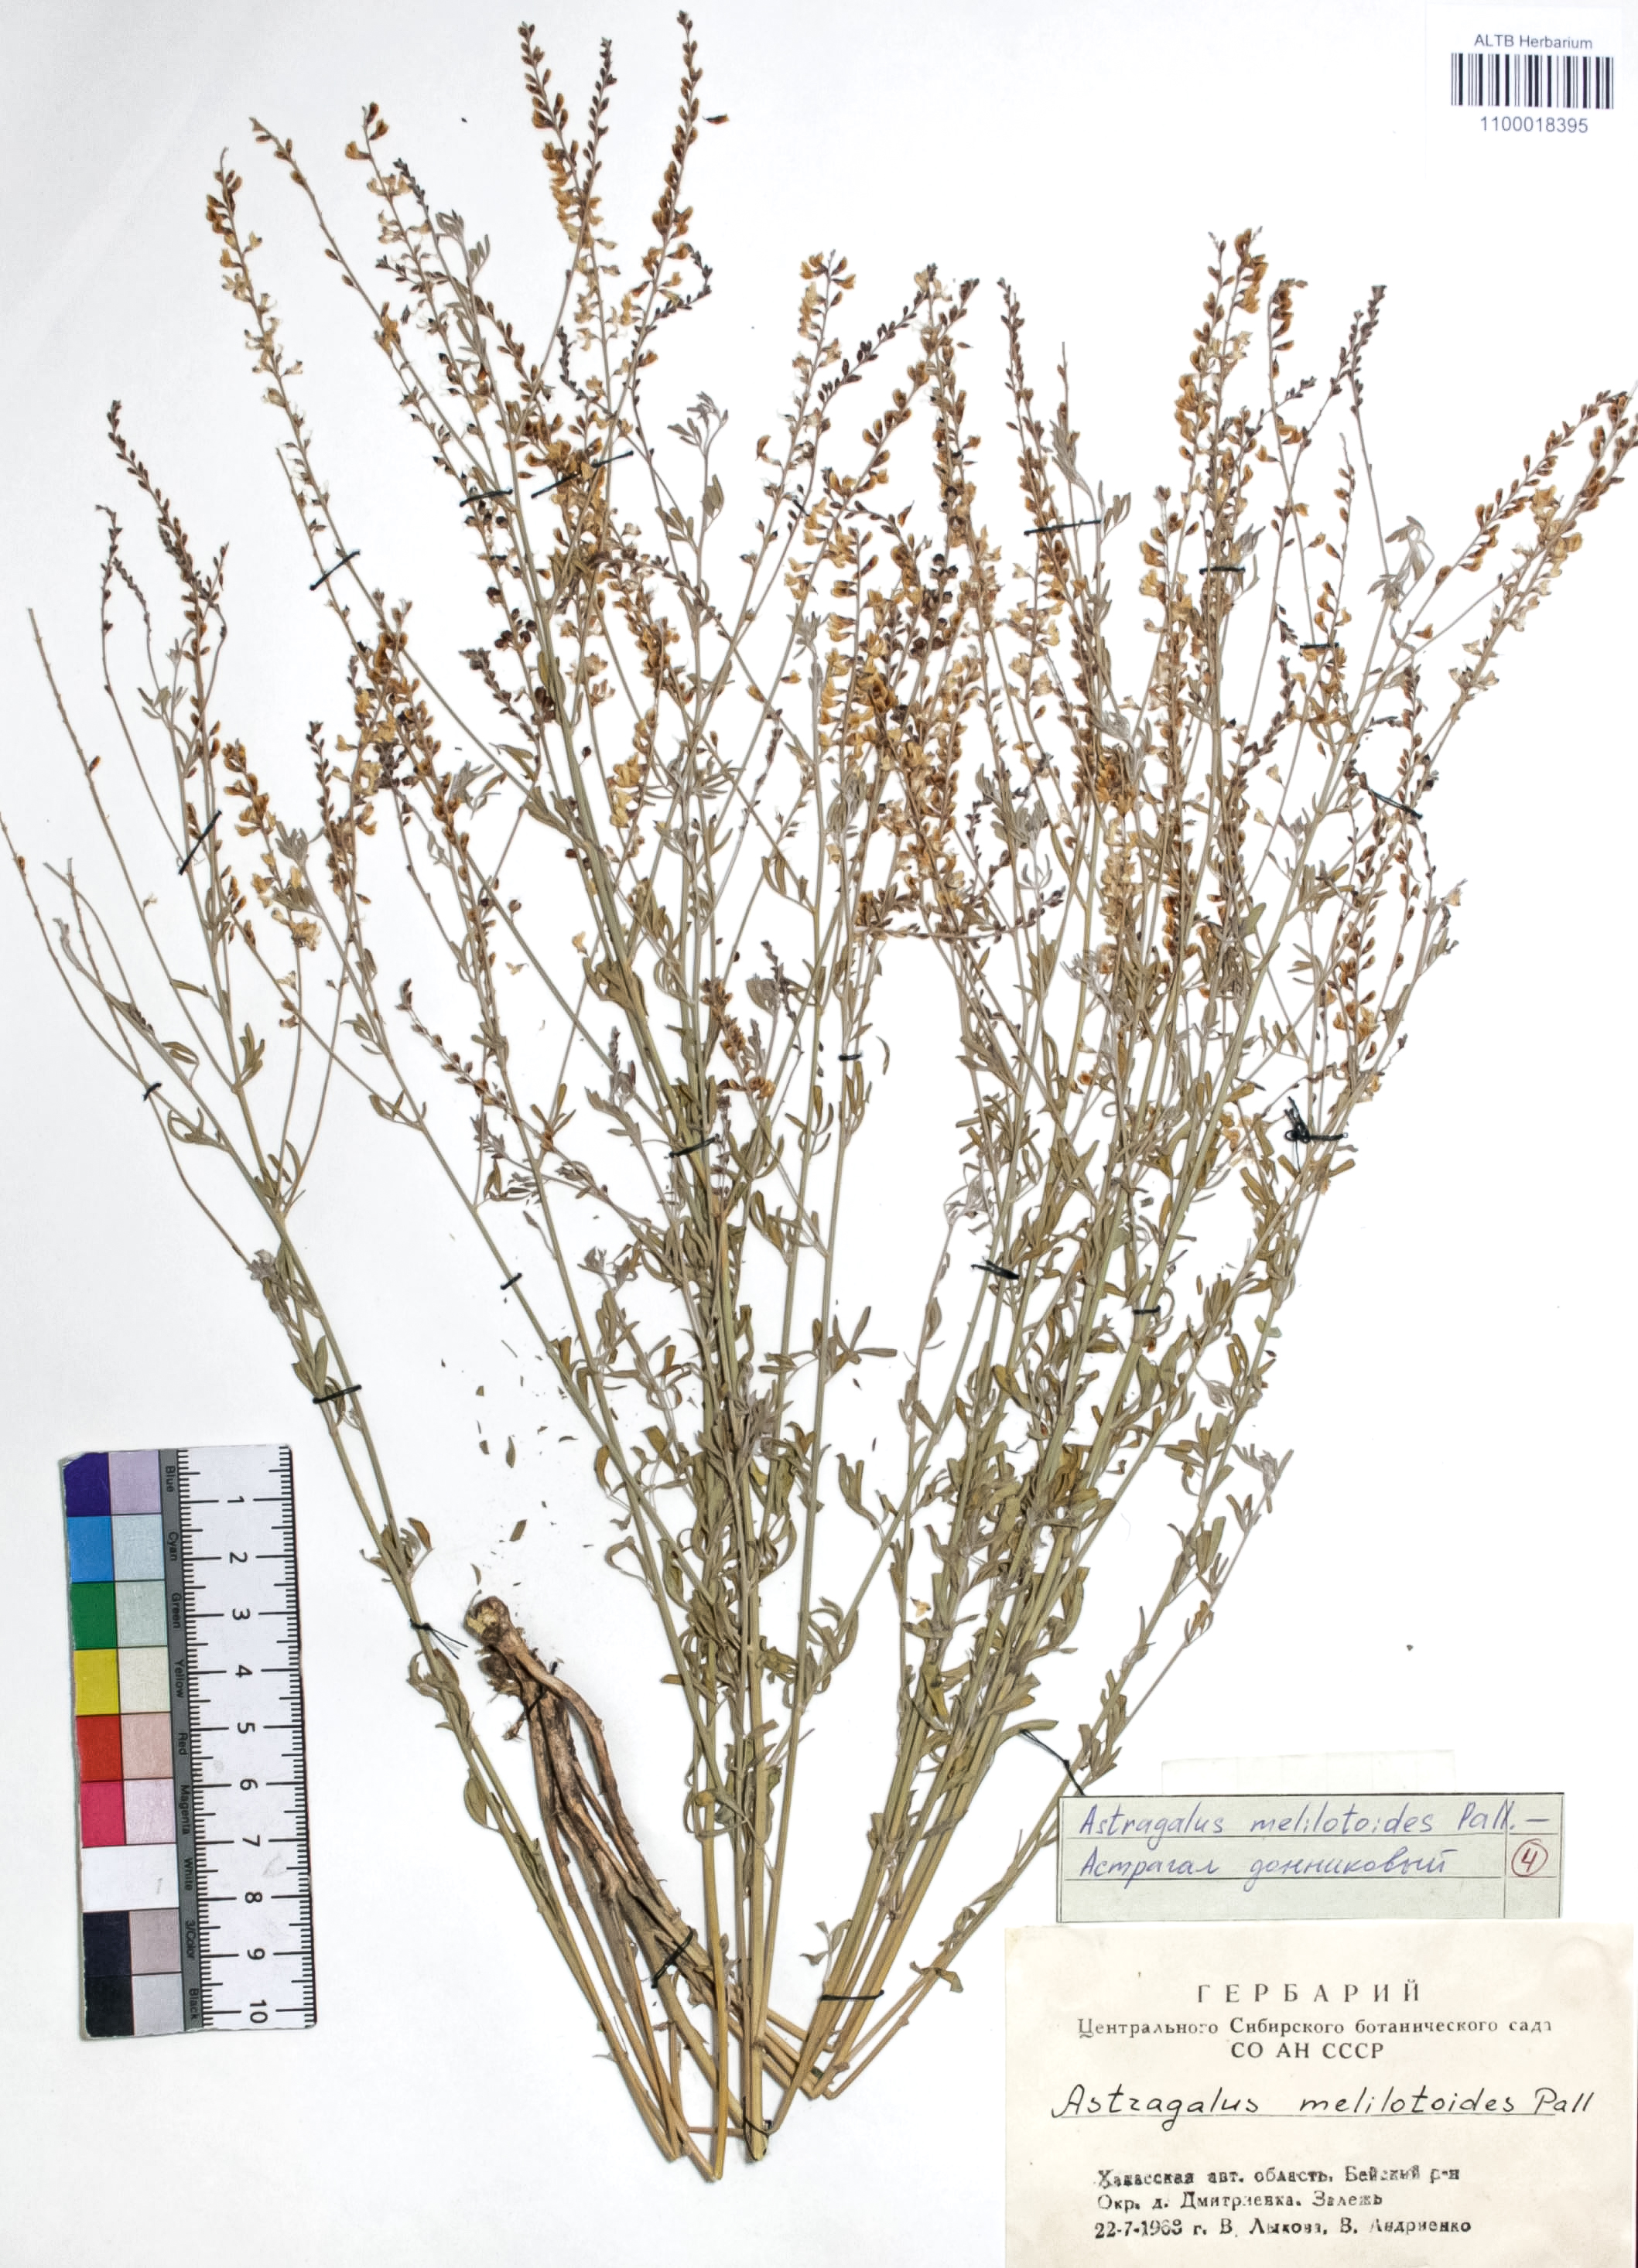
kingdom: Plantae
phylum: Tracheophyta
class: Magnoliopsida
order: Fabales
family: Fabaceae
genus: Astragalus
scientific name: Astragalus melilotoides
